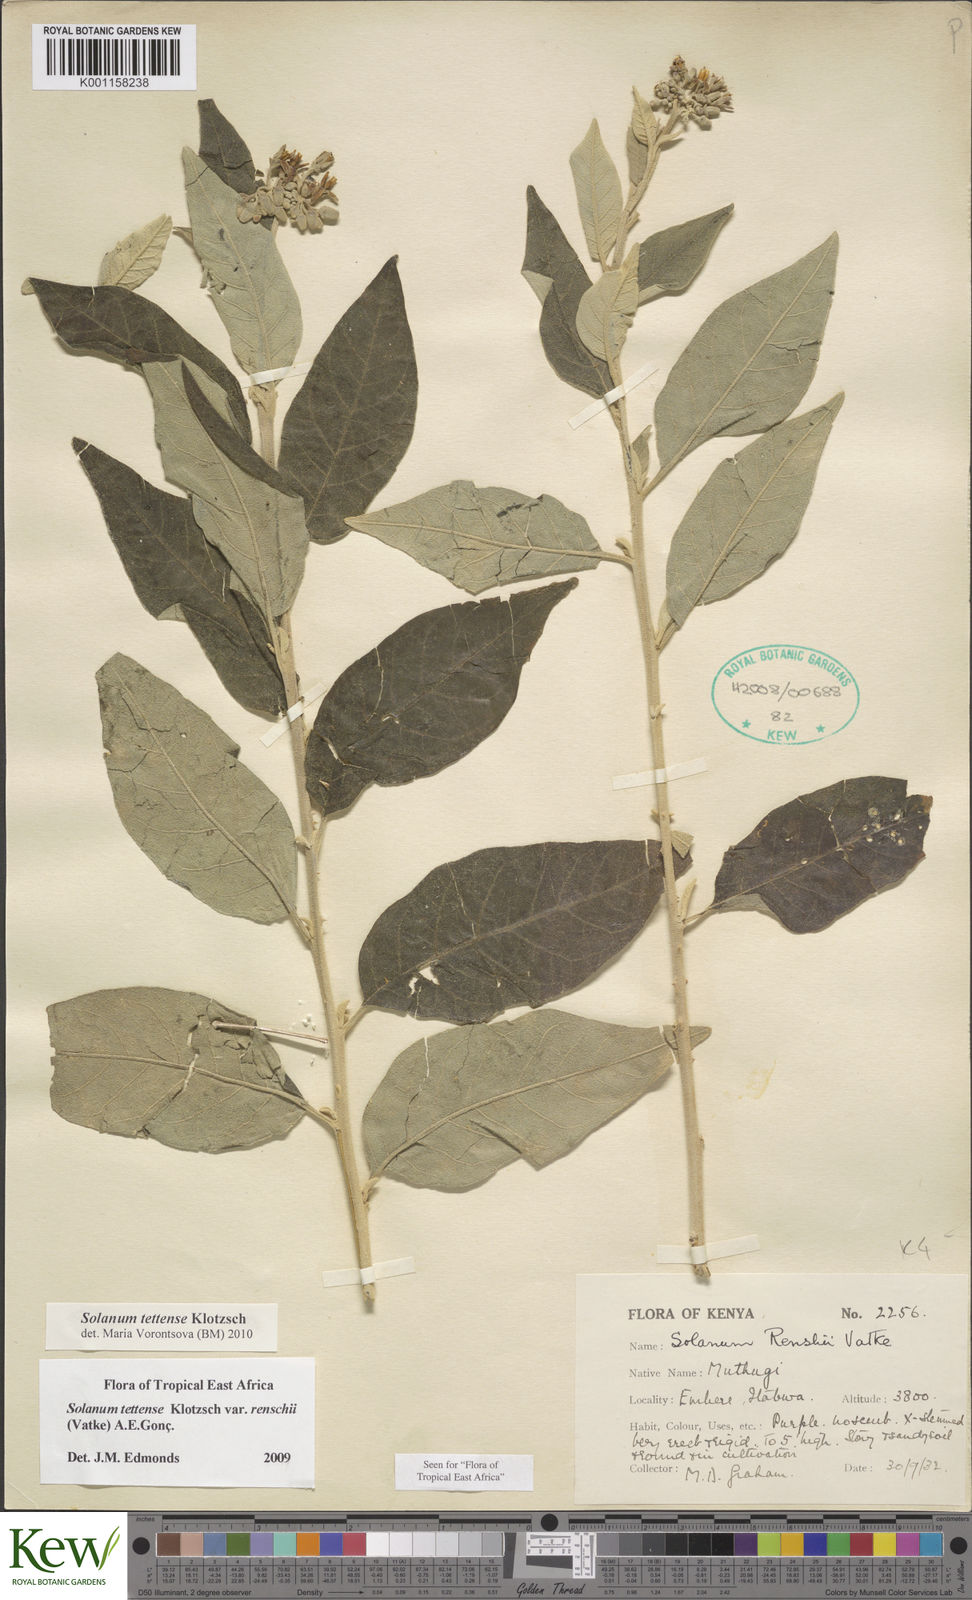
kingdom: Plantae
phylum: Tracheophyta
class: Magnoliopsida
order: Solanales
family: Solanaceae
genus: Solanum
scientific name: Solanum tettense
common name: Mozambique bitter apple
